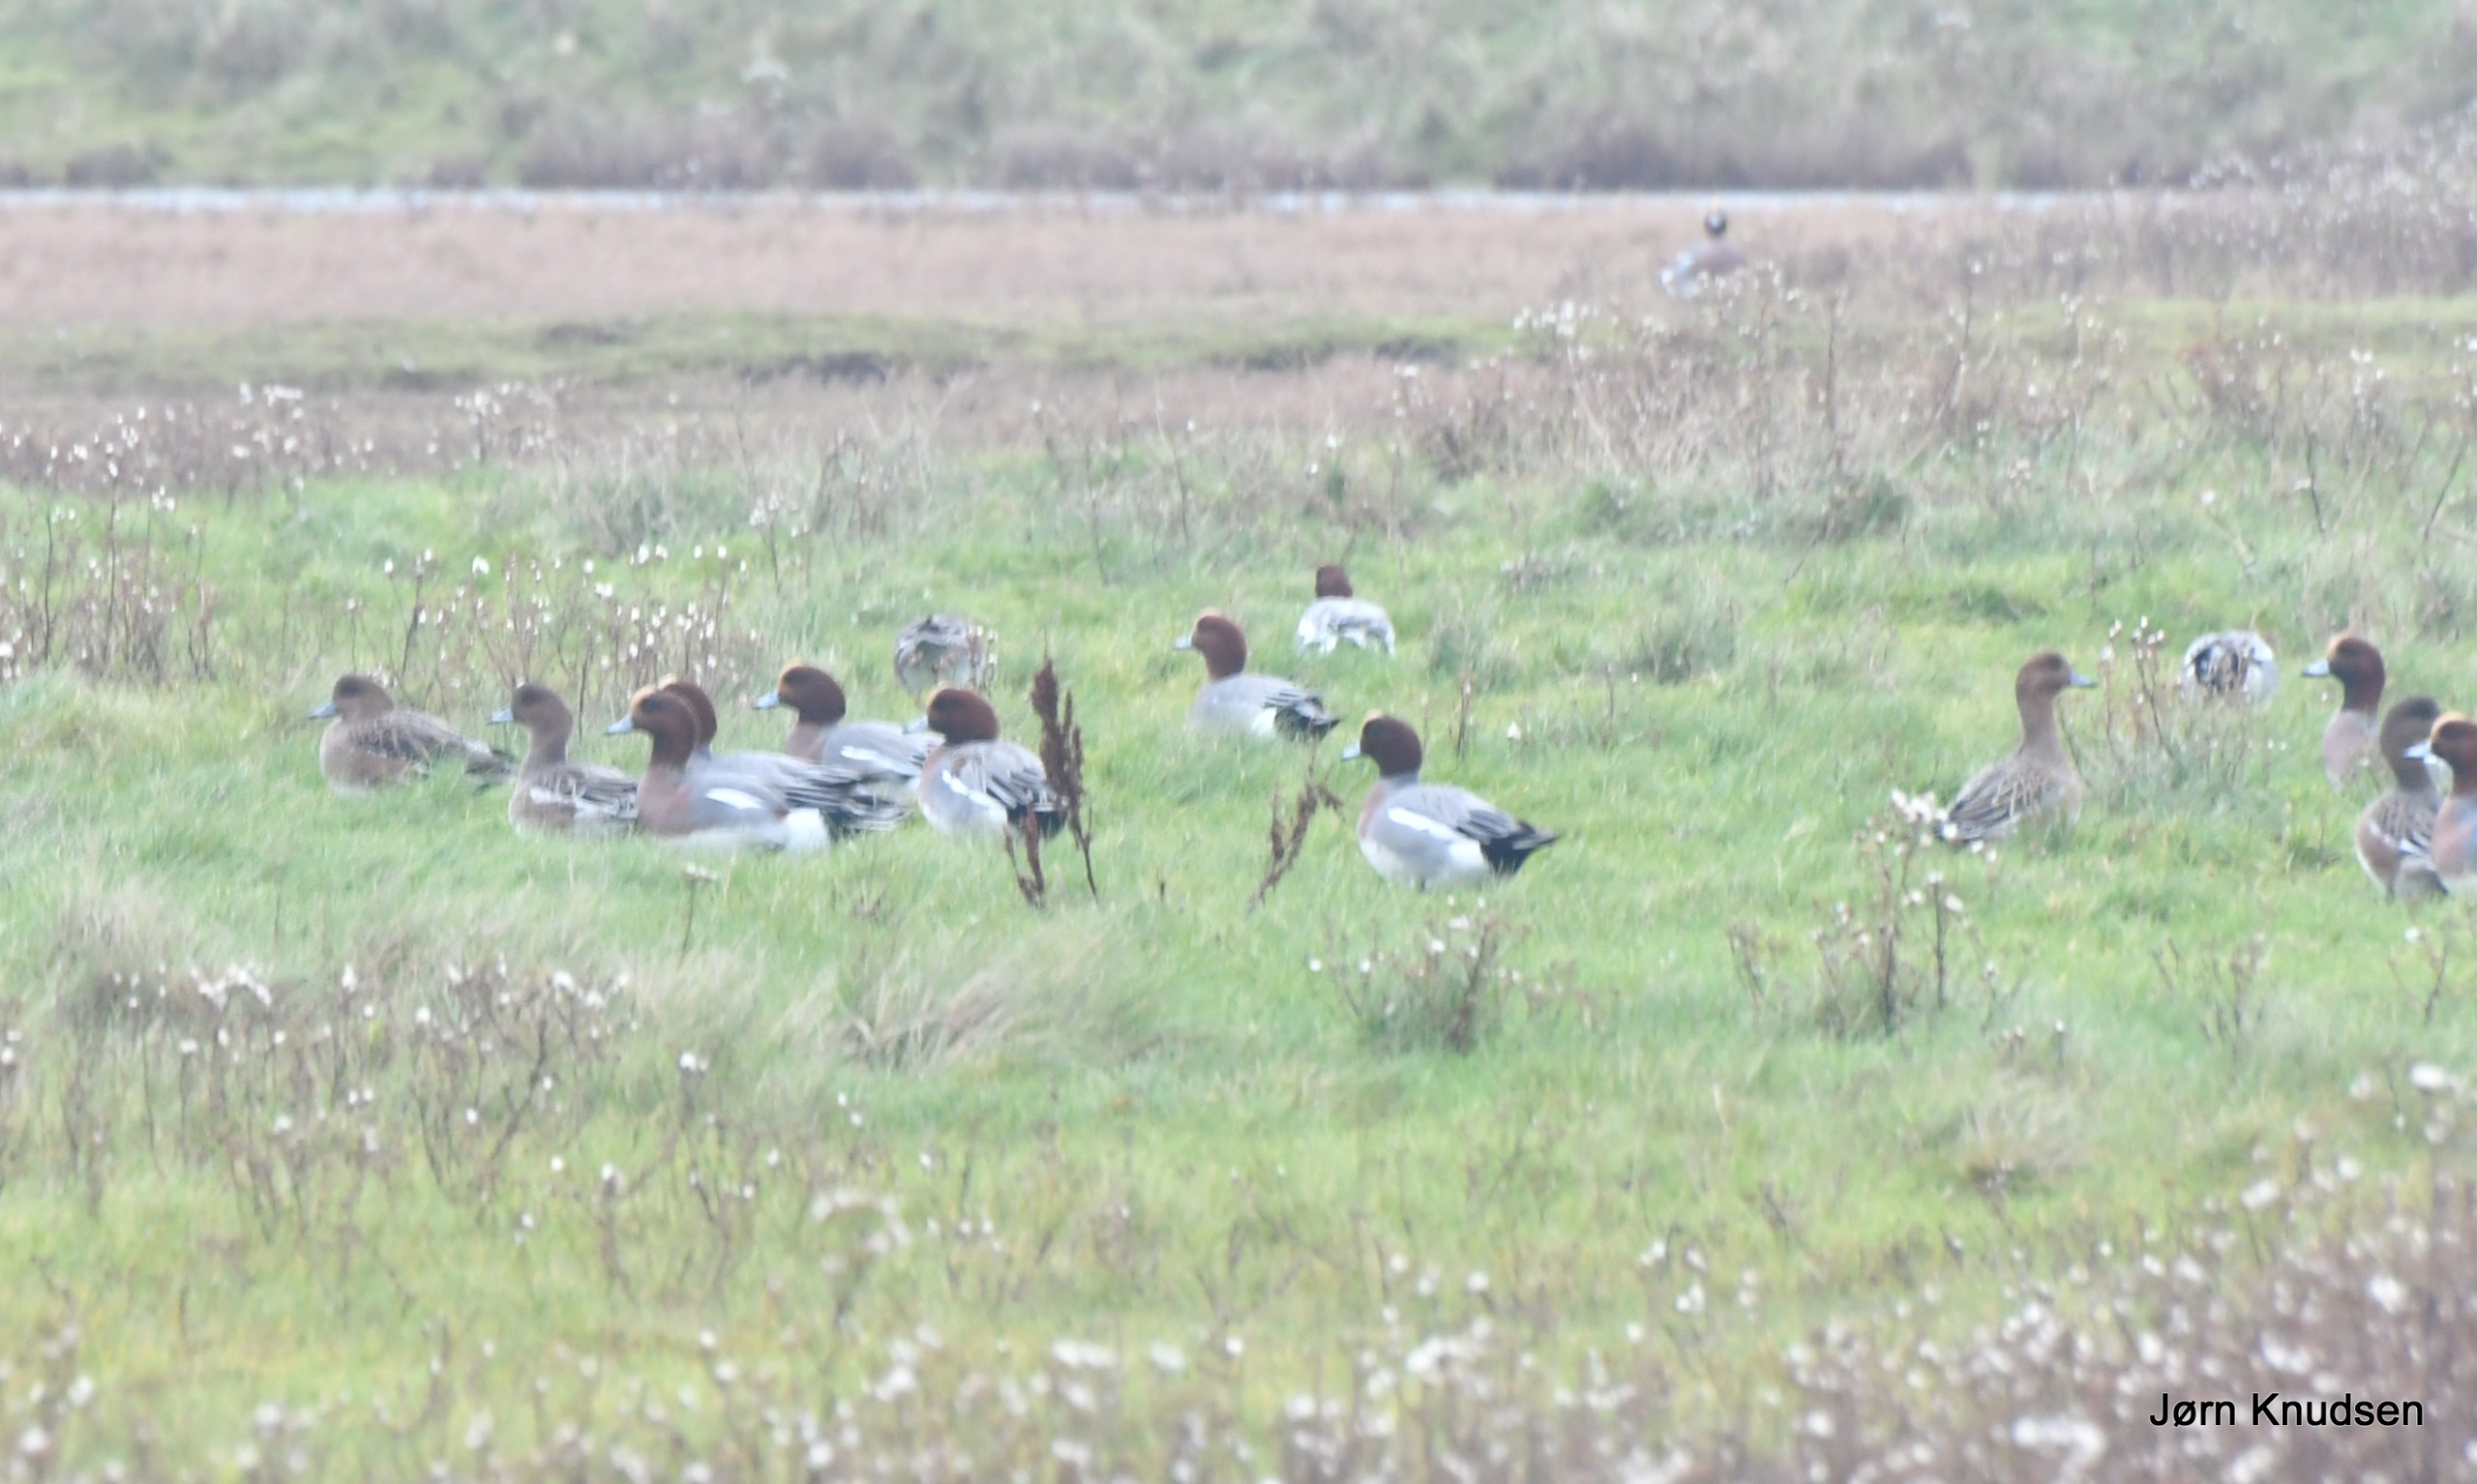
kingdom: Animalia
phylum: Chordata
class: Aves
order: Anseriformes
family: Anatidae
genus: Mareca
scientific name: Mareca penelope
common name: Pibeand
